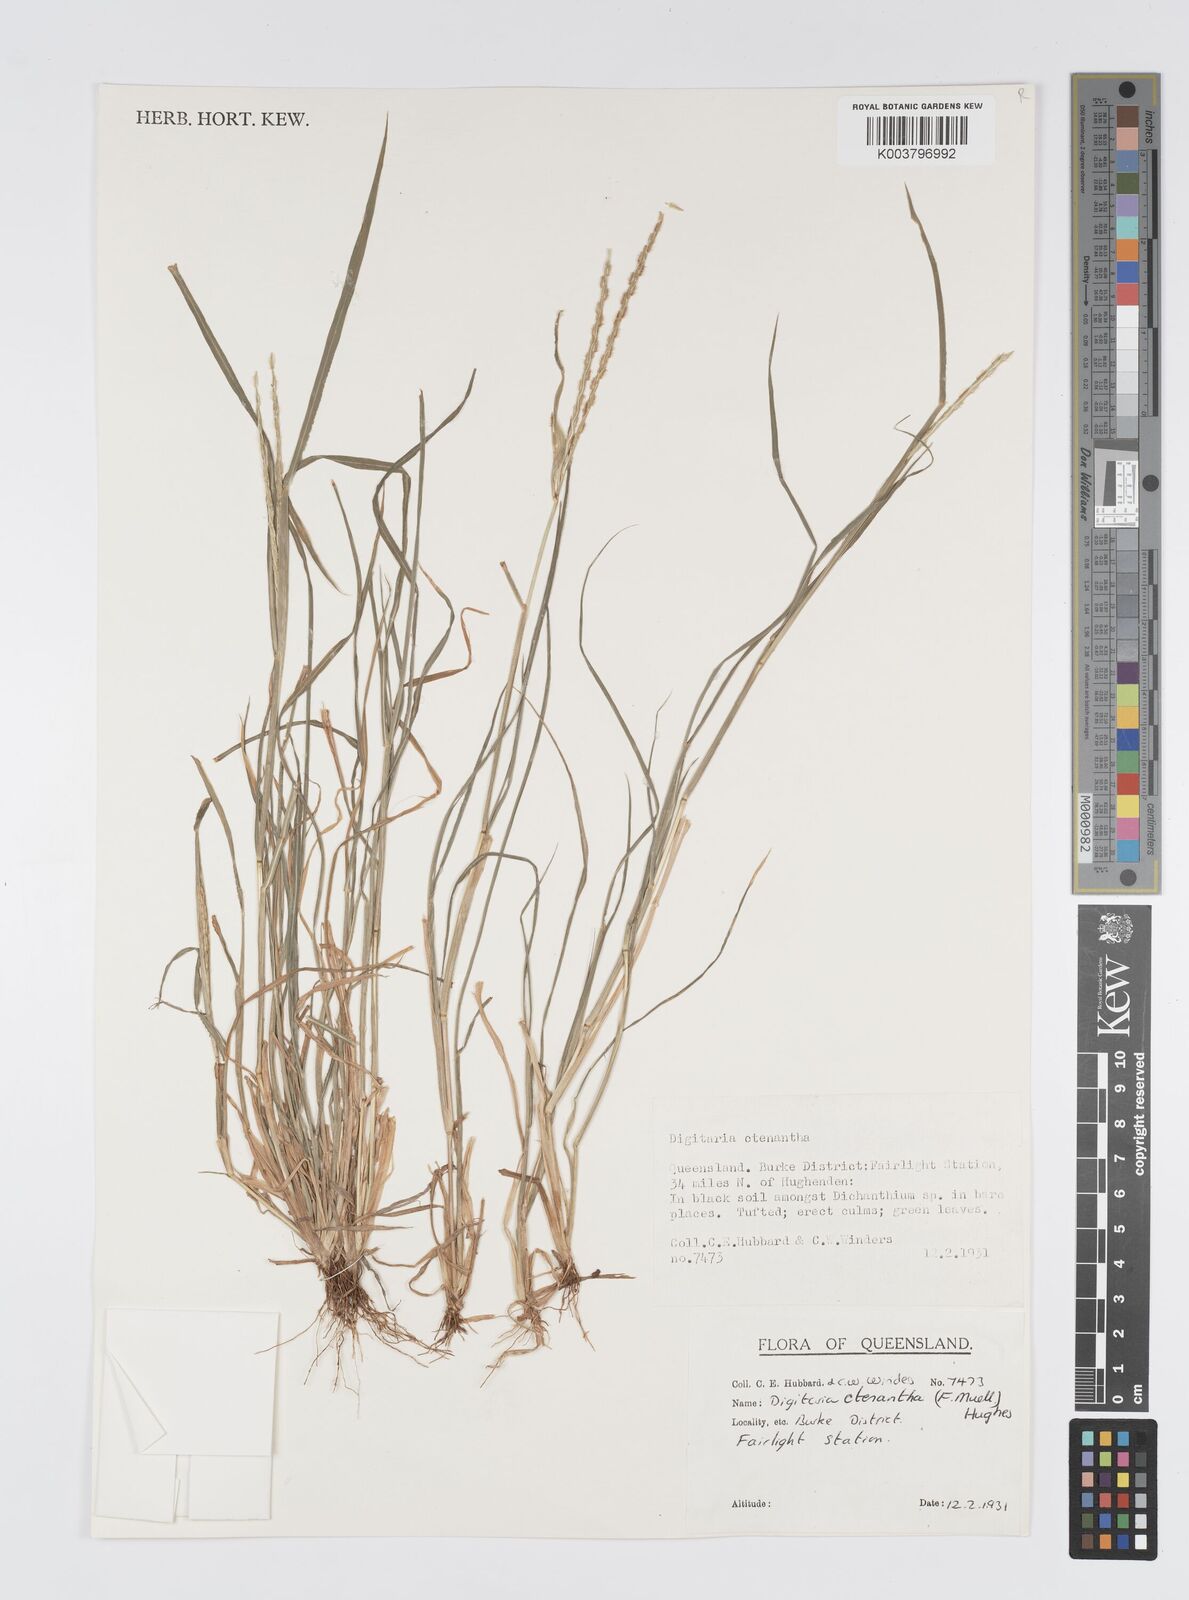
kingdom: Plantae
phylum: Tracheophyta
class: Liliopsida
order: Poales
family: Poaceae
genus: Digitaria
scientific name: Digitaria ctenantha
